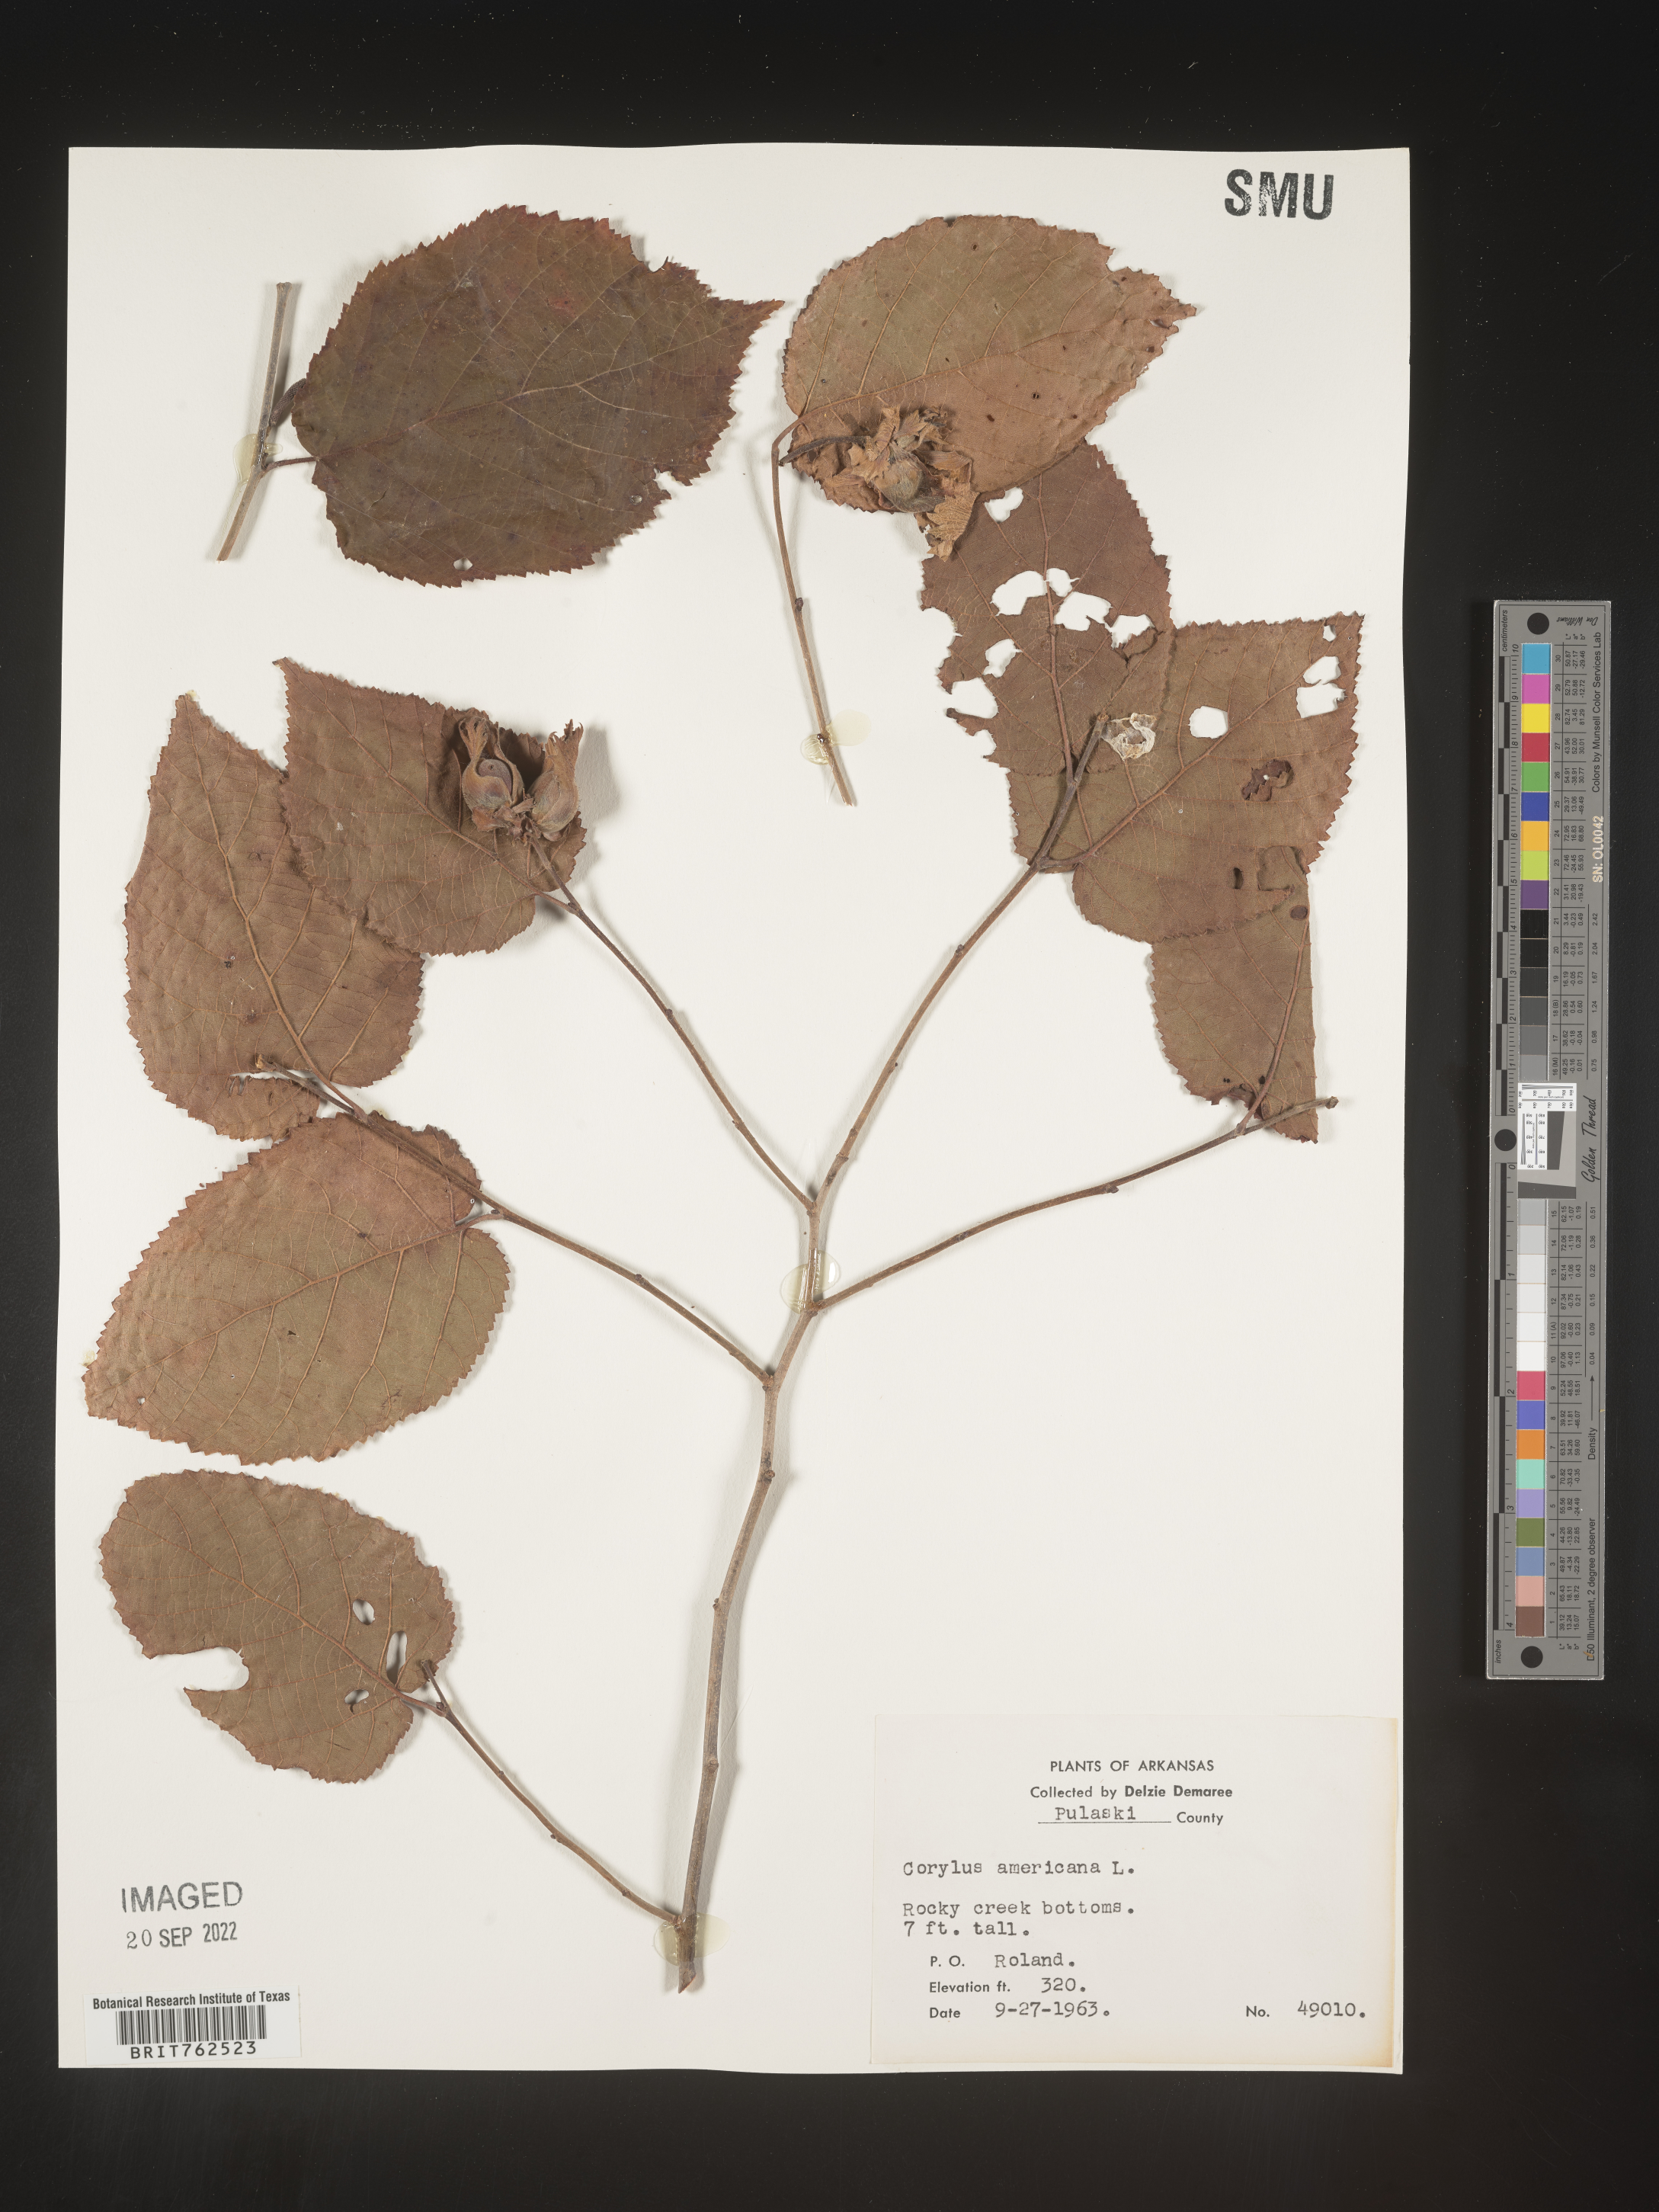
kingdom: Plantae
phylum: Tracheophyta
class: Magnoliopsida
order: Fagales
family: Betulaceae
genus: Corylus
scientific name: Corylus americana
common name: American hazel
